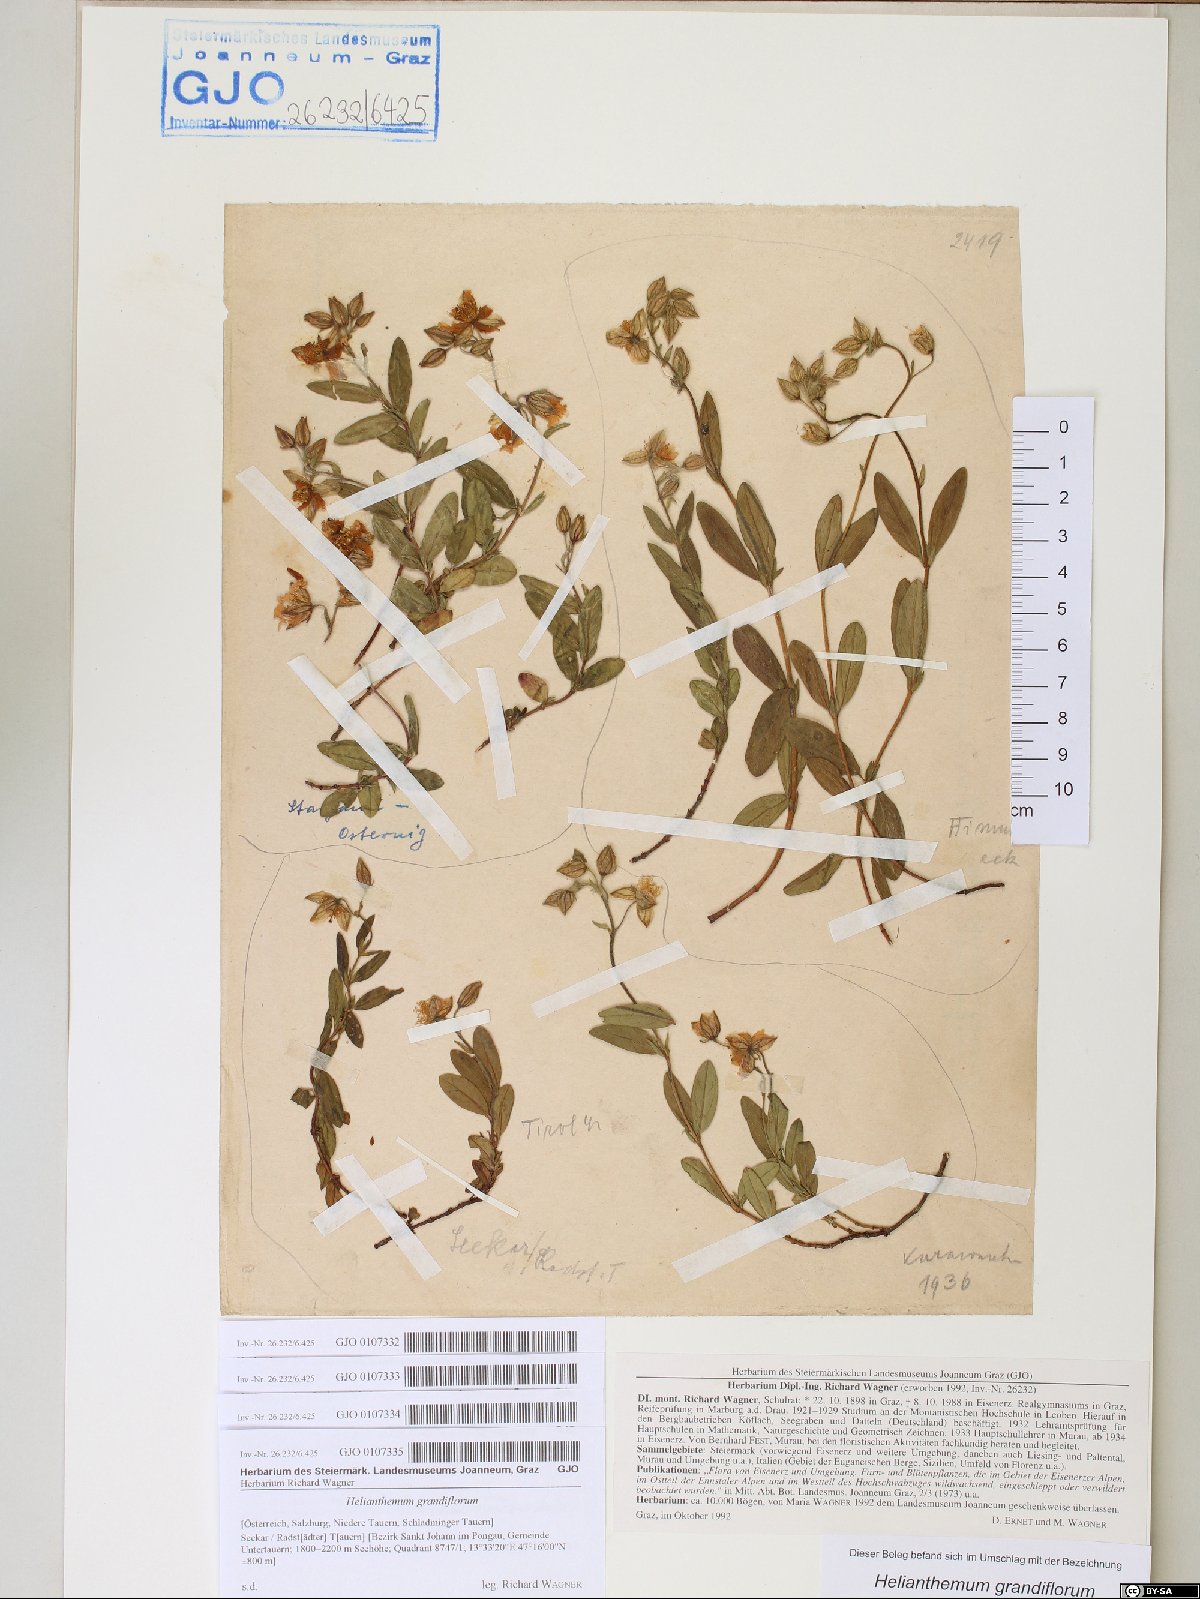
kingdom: Plantae
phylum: Tracheophyta
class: Magnoliopsida
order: Malvales
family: Cistaceae
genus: Helianthemum
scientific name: Helianthemum nummularium
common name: Common rock-rose
